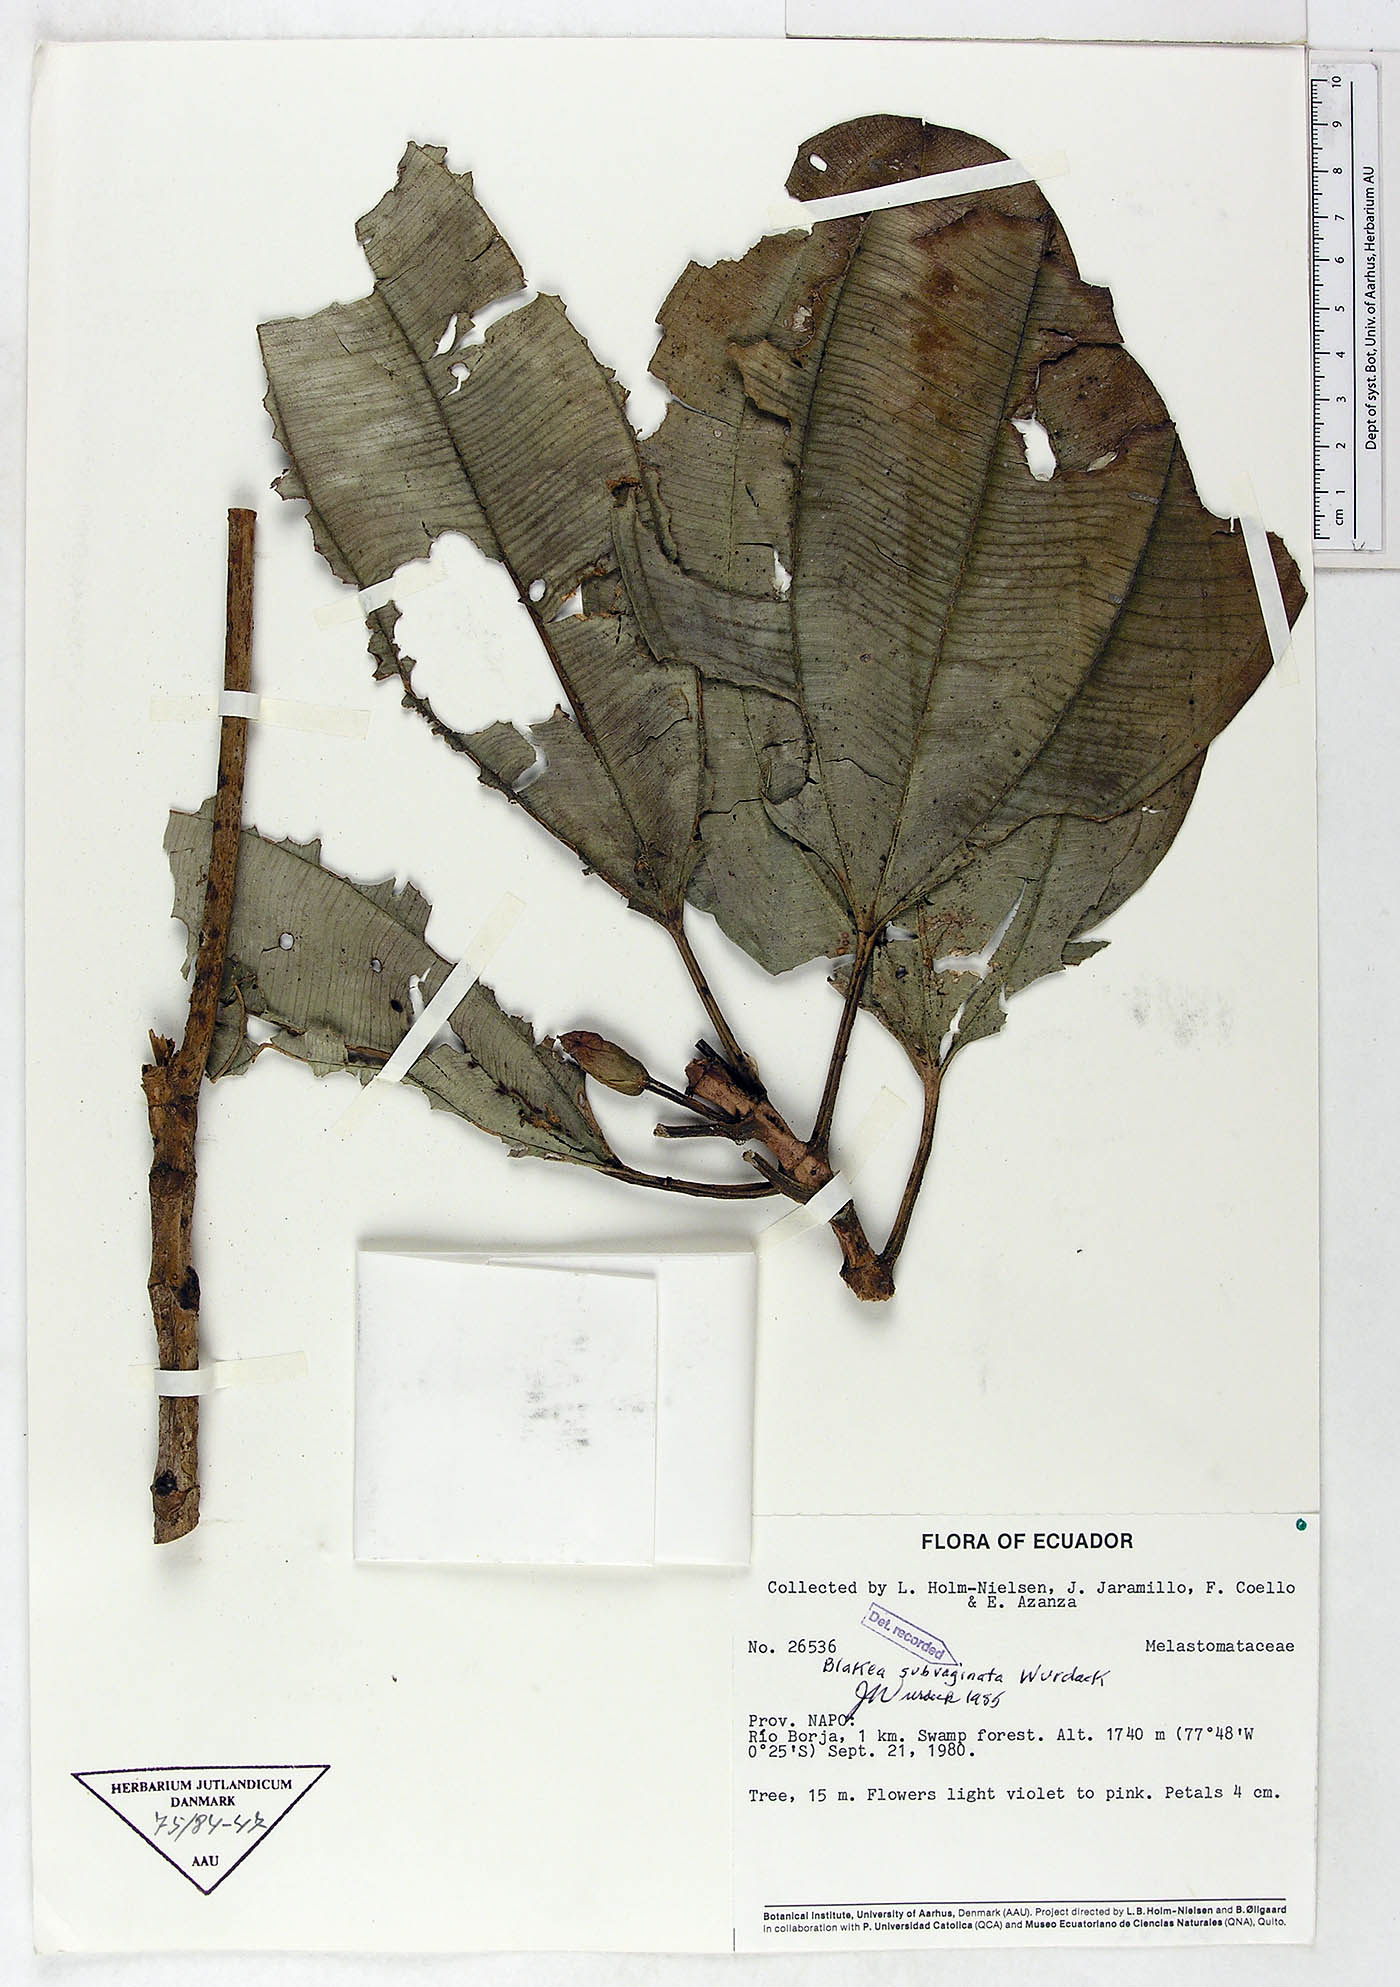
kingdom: Plantae
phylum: Tracheophyta
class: Magnoliopsida
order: Myrtales
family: Melastomataceae
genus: Blakea
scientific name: Blakea subvaginata
